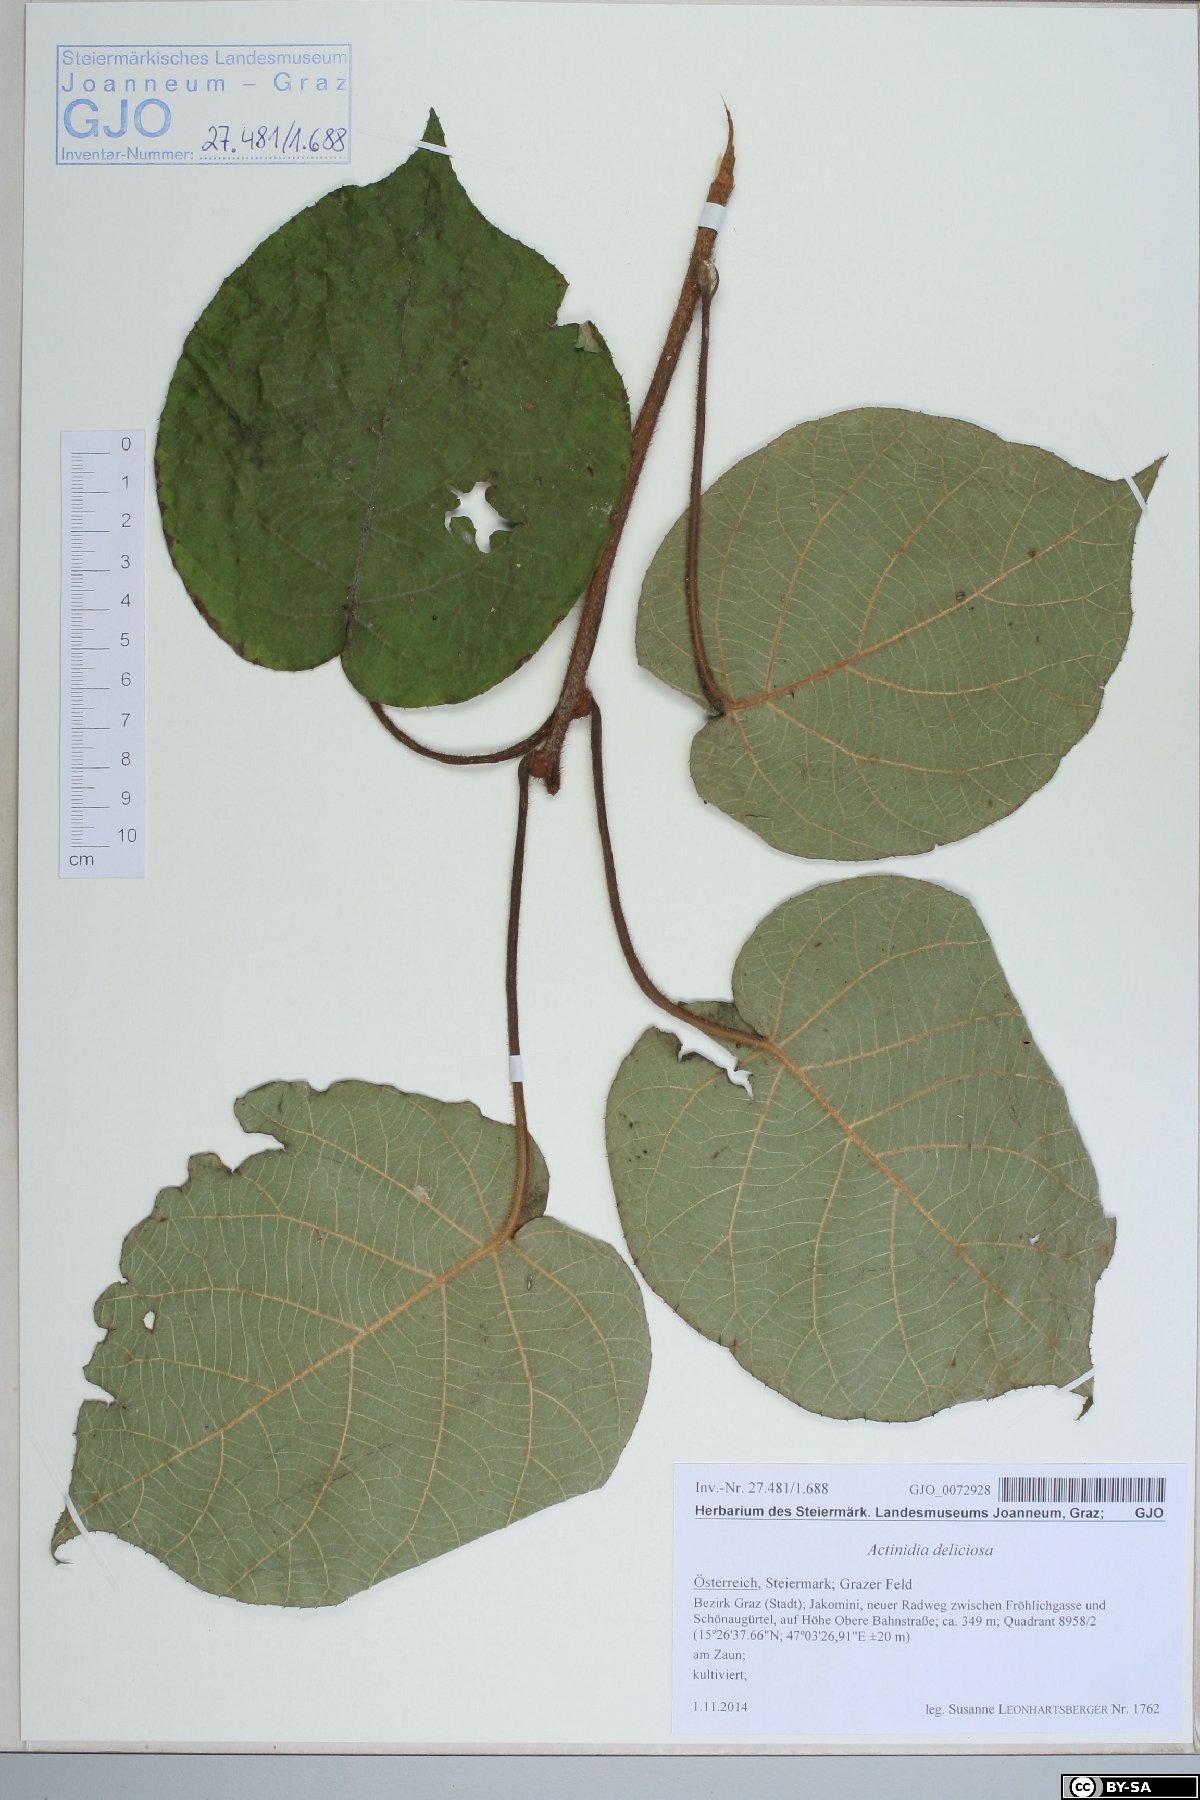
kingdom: Plantae
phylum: Tracheophyta
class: Magnoliopsida
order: Ericales
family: Actinidiaceae
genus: Actinidia
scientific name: Actinidia chinensis
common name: Kiwi
